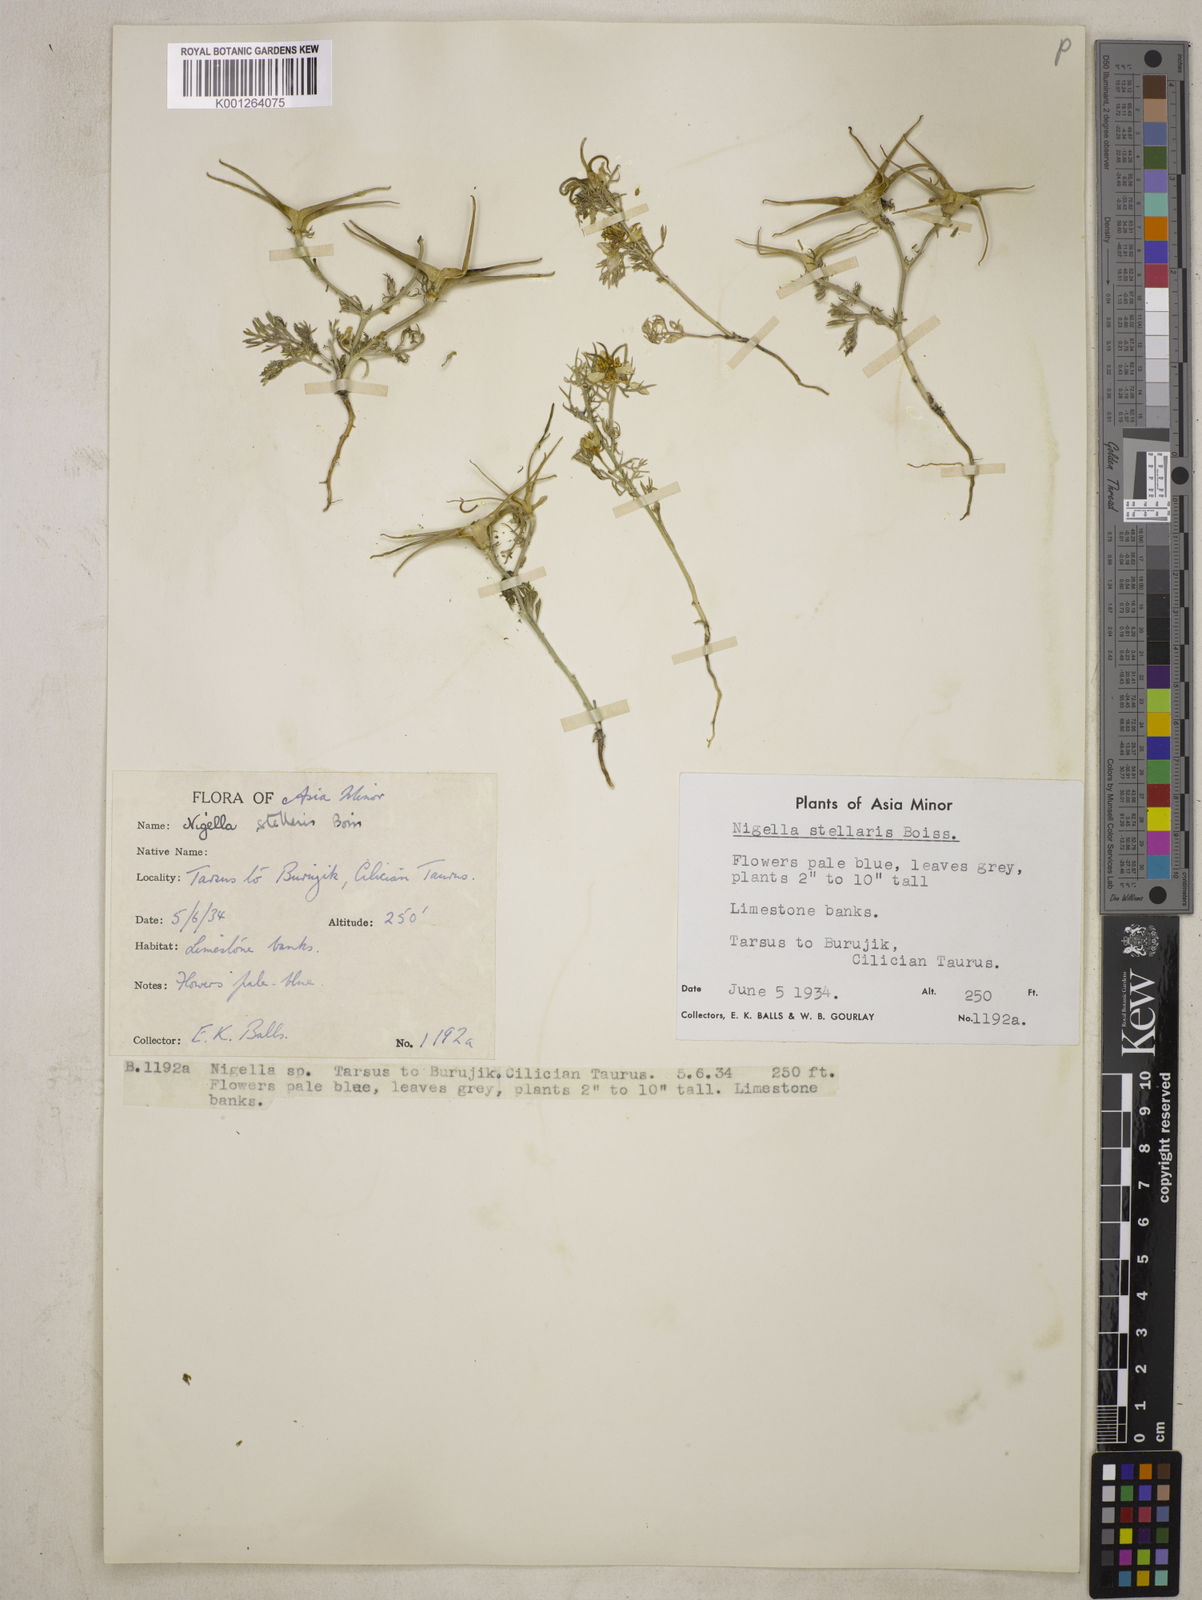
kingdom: Plantae
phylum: Tracheophyta
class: Magnoliopsida
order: Ranunculales
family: Ranunculaceae
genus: Nigella
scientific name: Nigella stellaris
